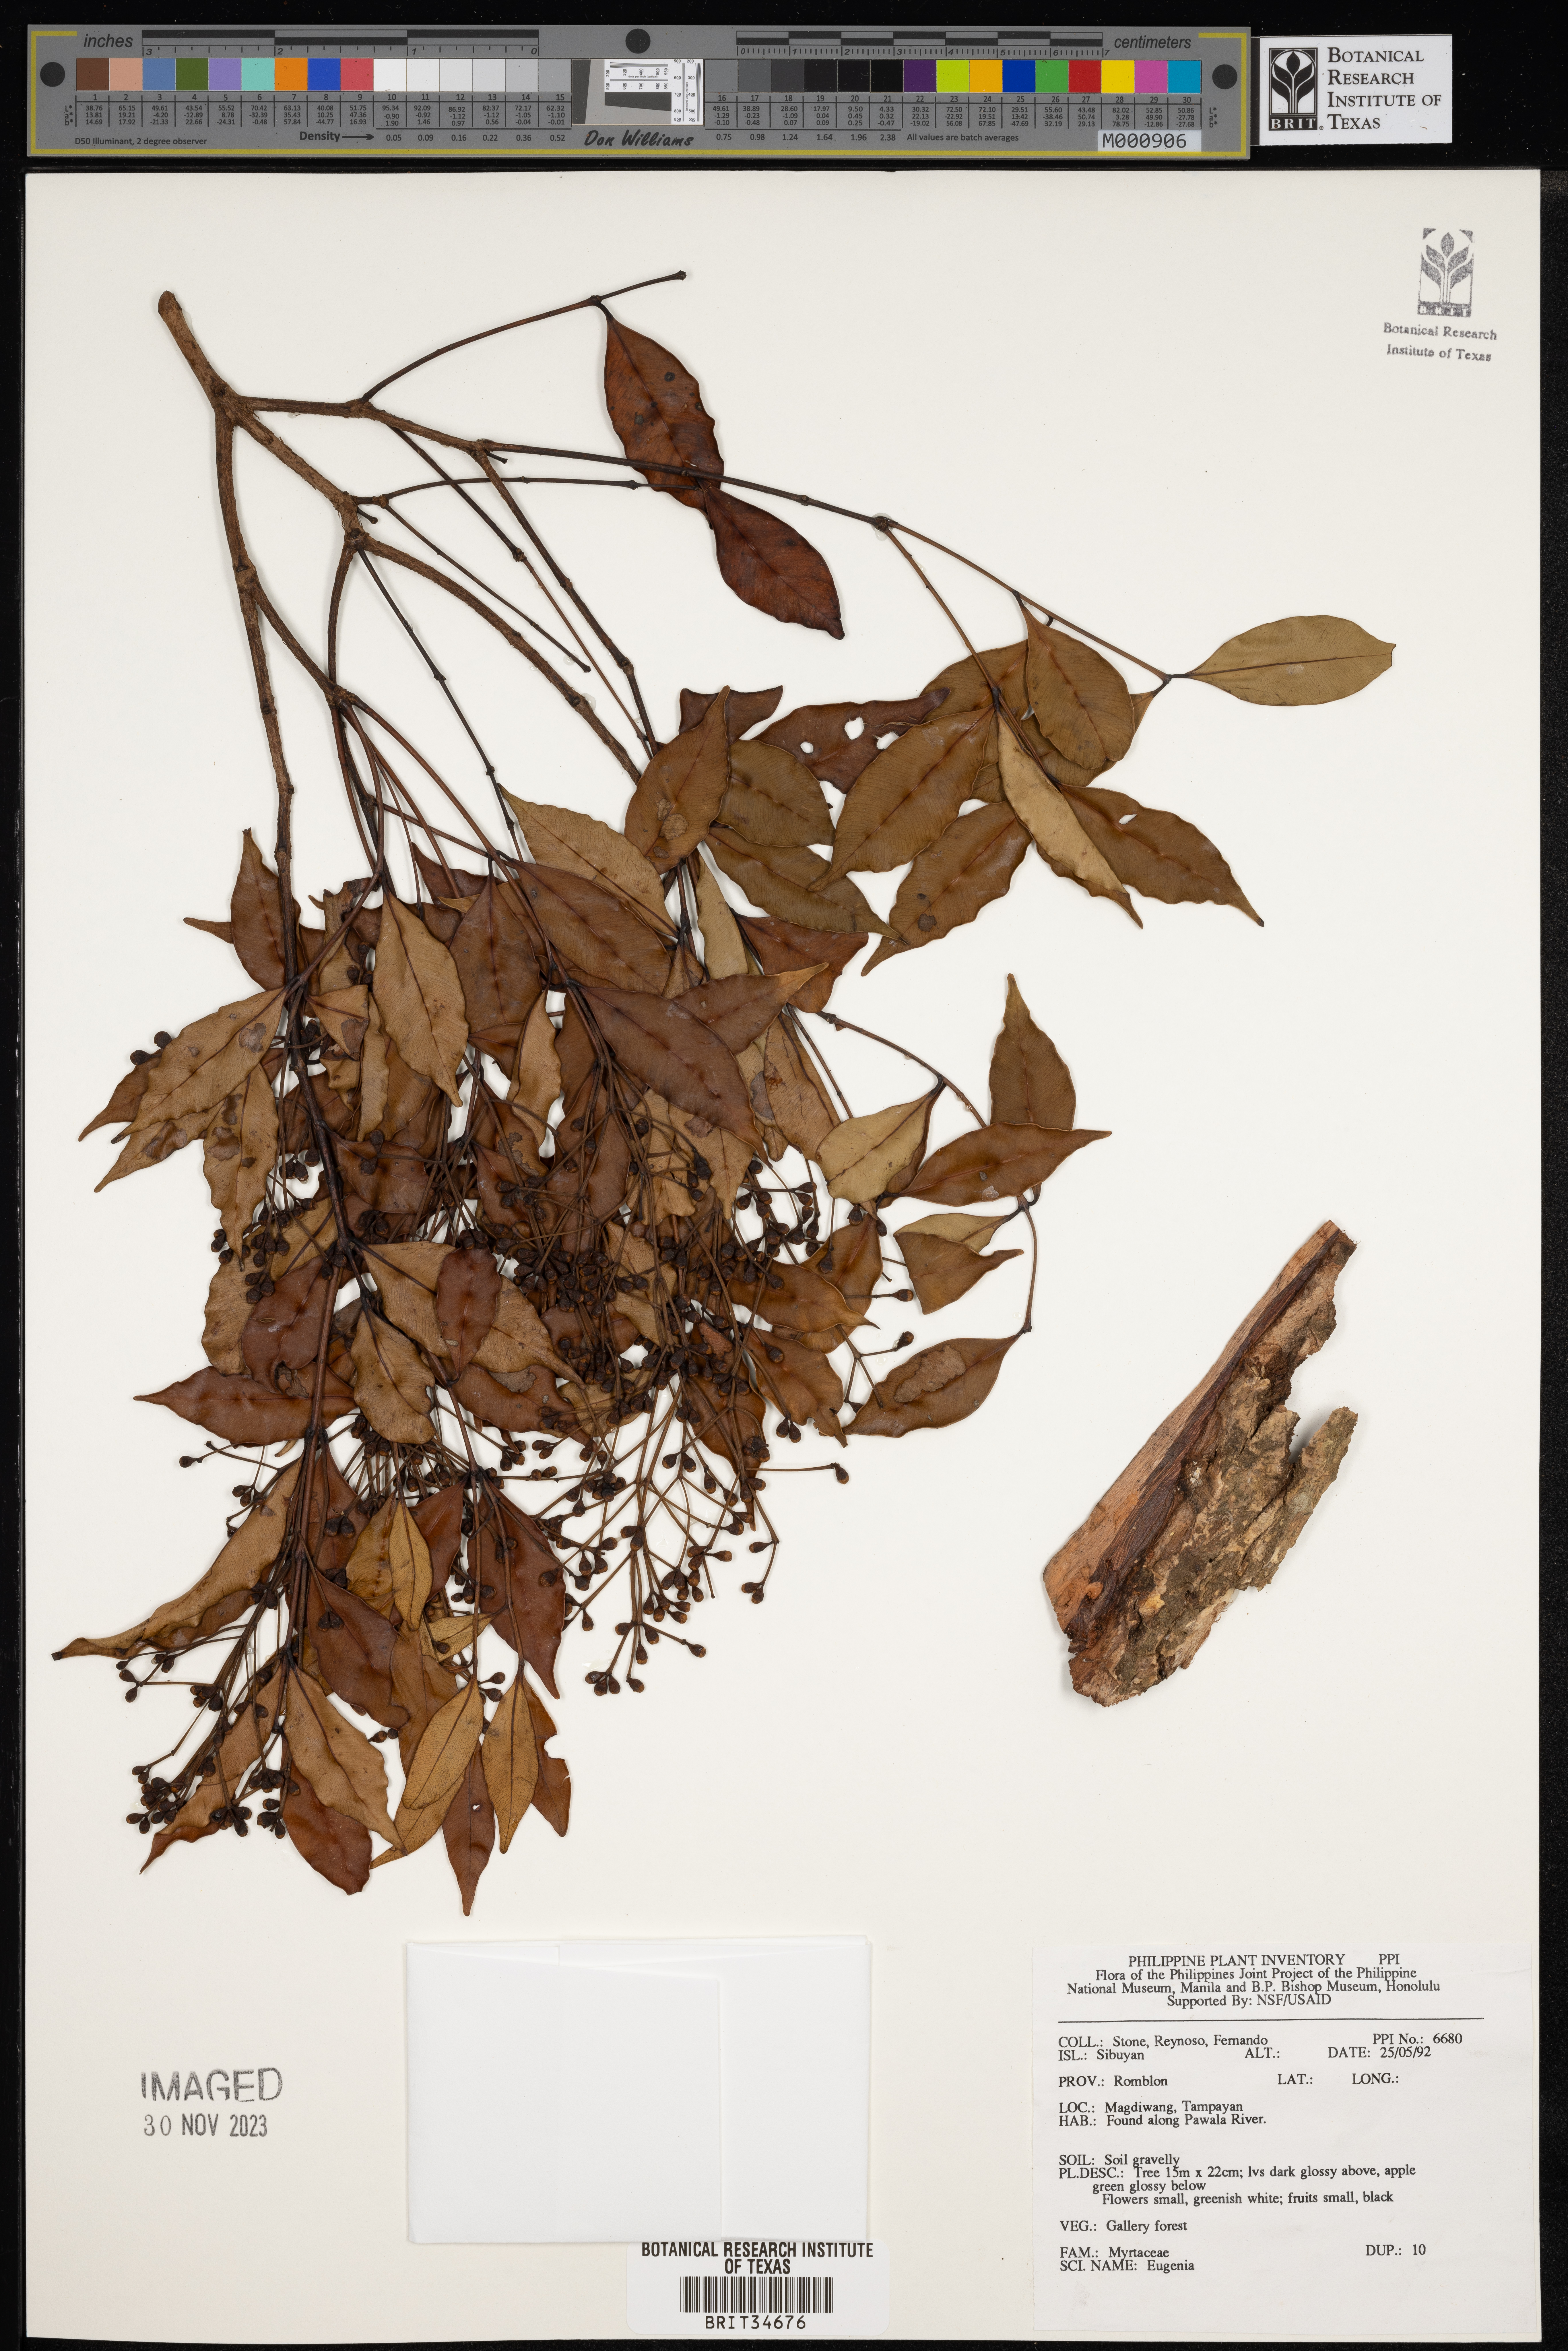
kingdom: Plantae
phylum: Tracheophyta
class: Magnoliopsida
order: Myrtales
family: Myrtaceae
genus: Eugenia
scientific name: Eugenia
